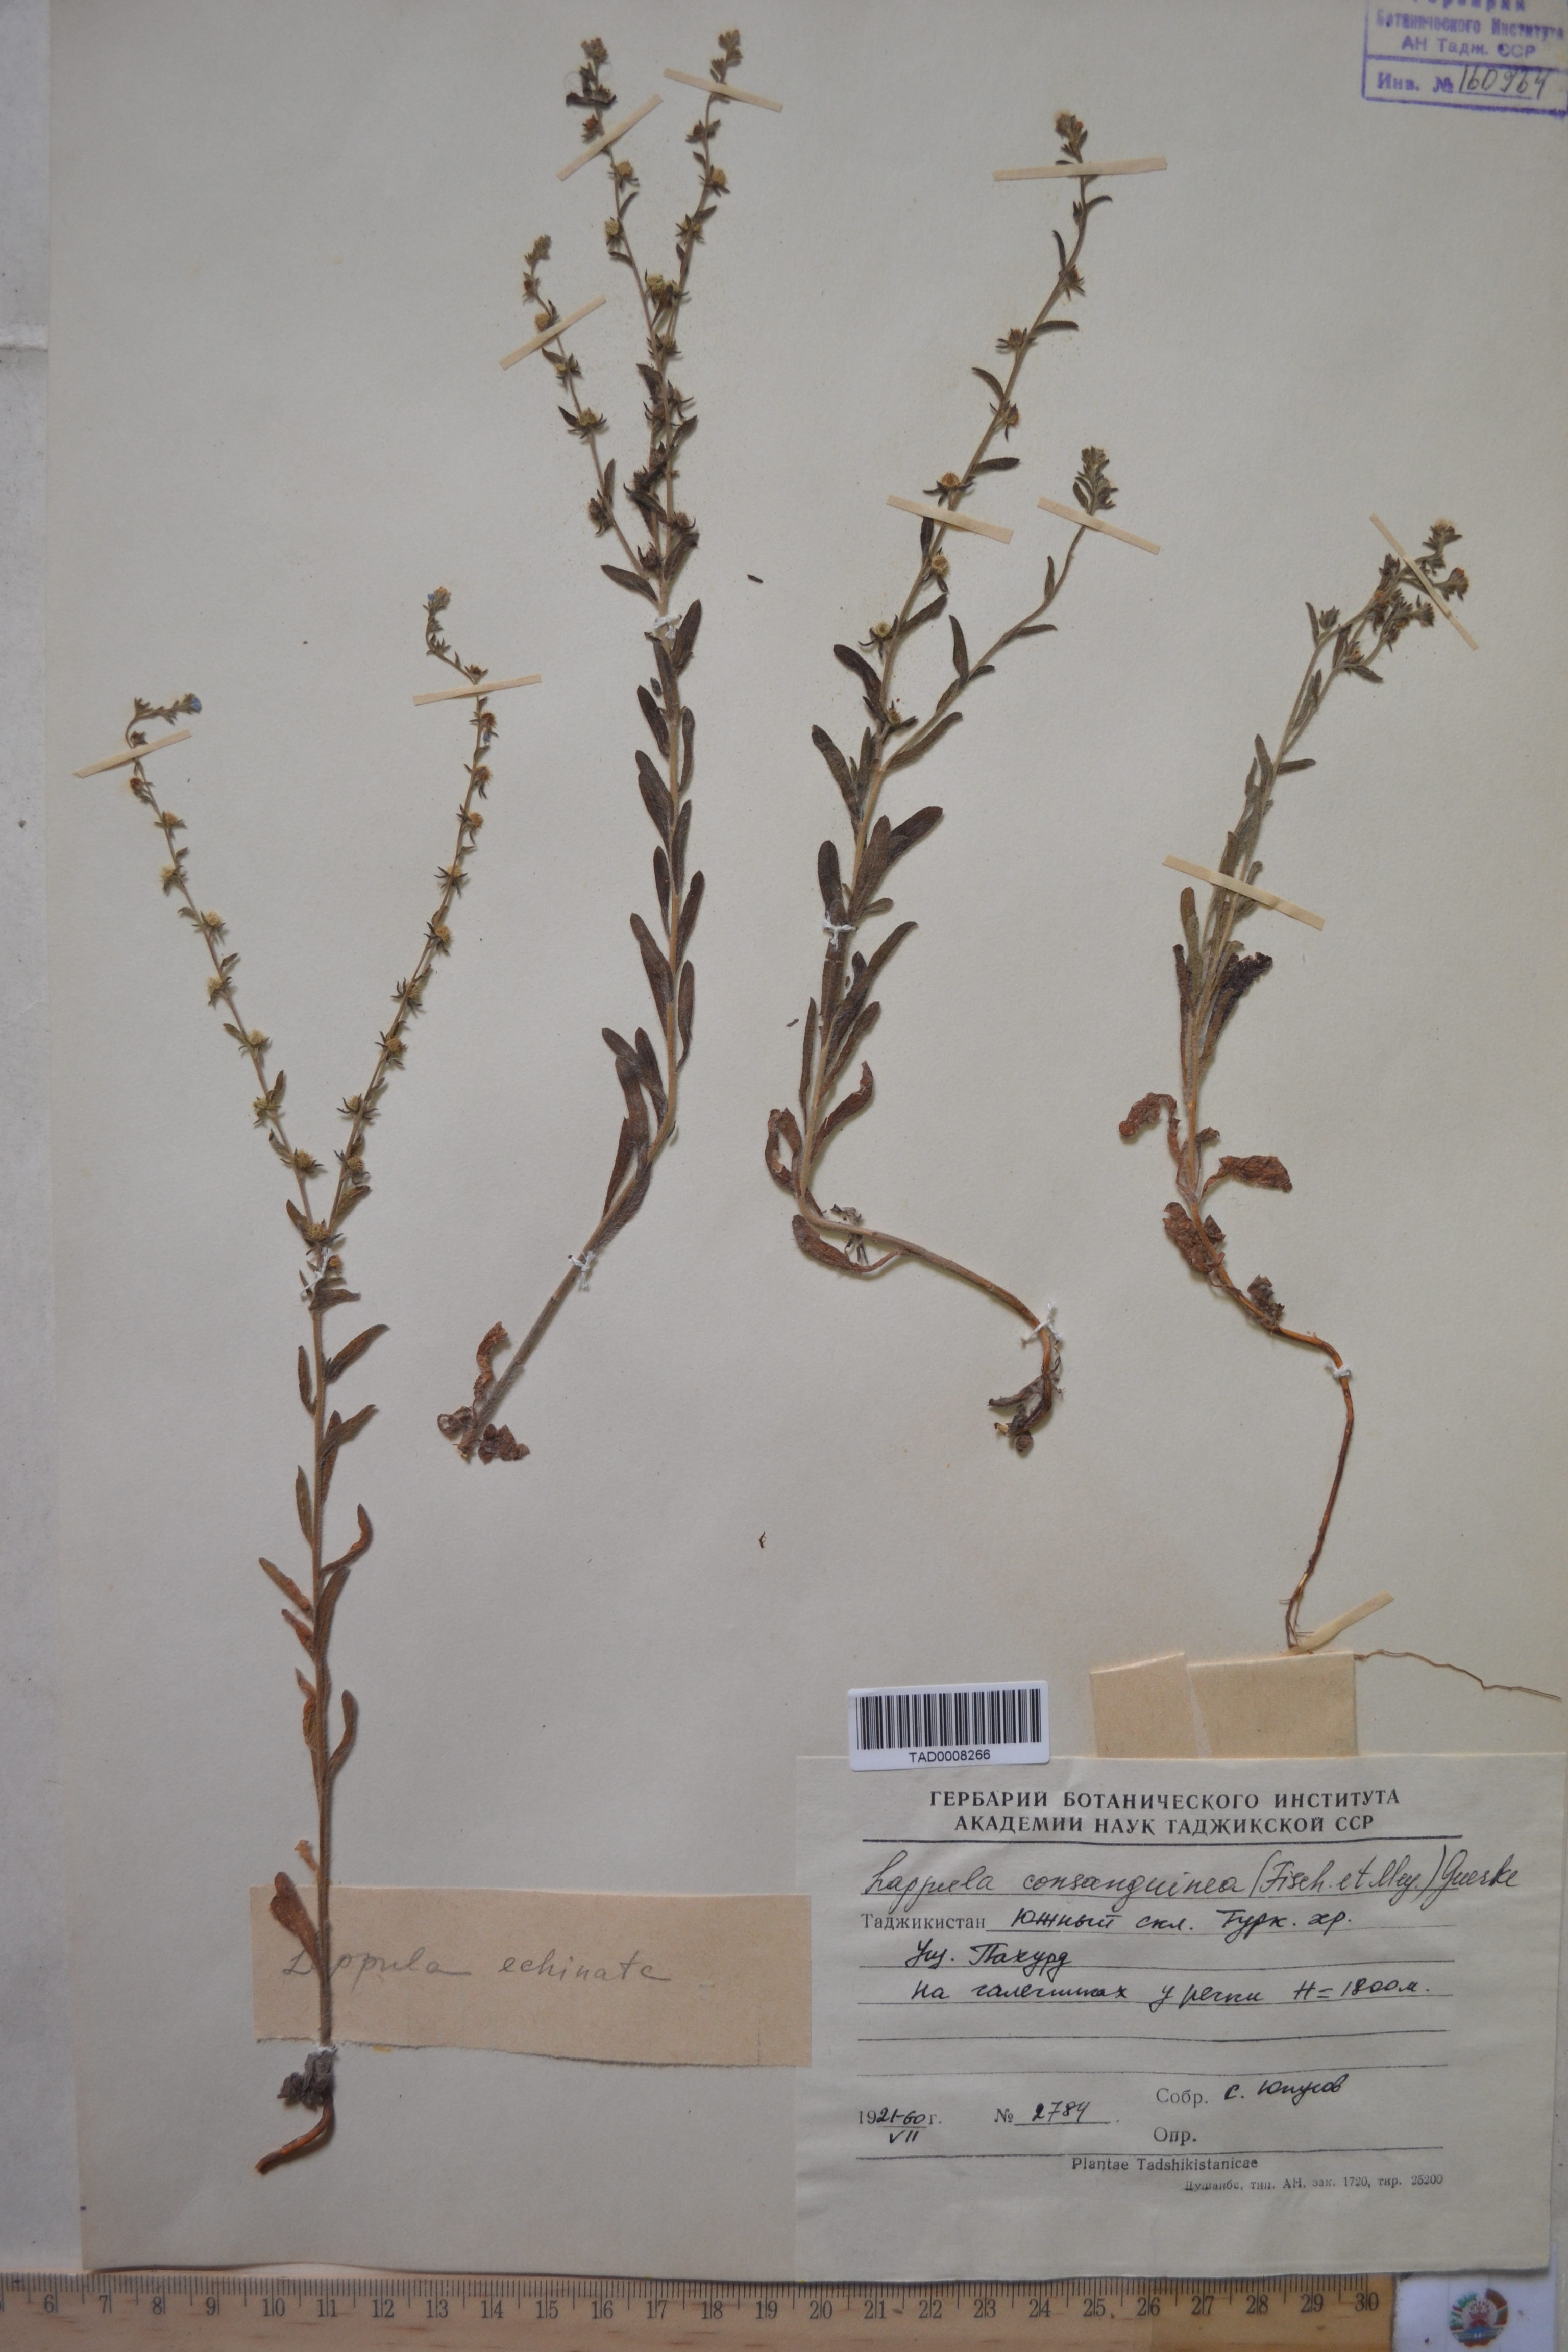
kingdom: Plantae
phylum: Tracheophyta
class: Magnoliopsida
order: Boraginales
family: Boraginaceae
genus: Lappula
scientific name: Lappula squarrosa
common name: European stickseed
